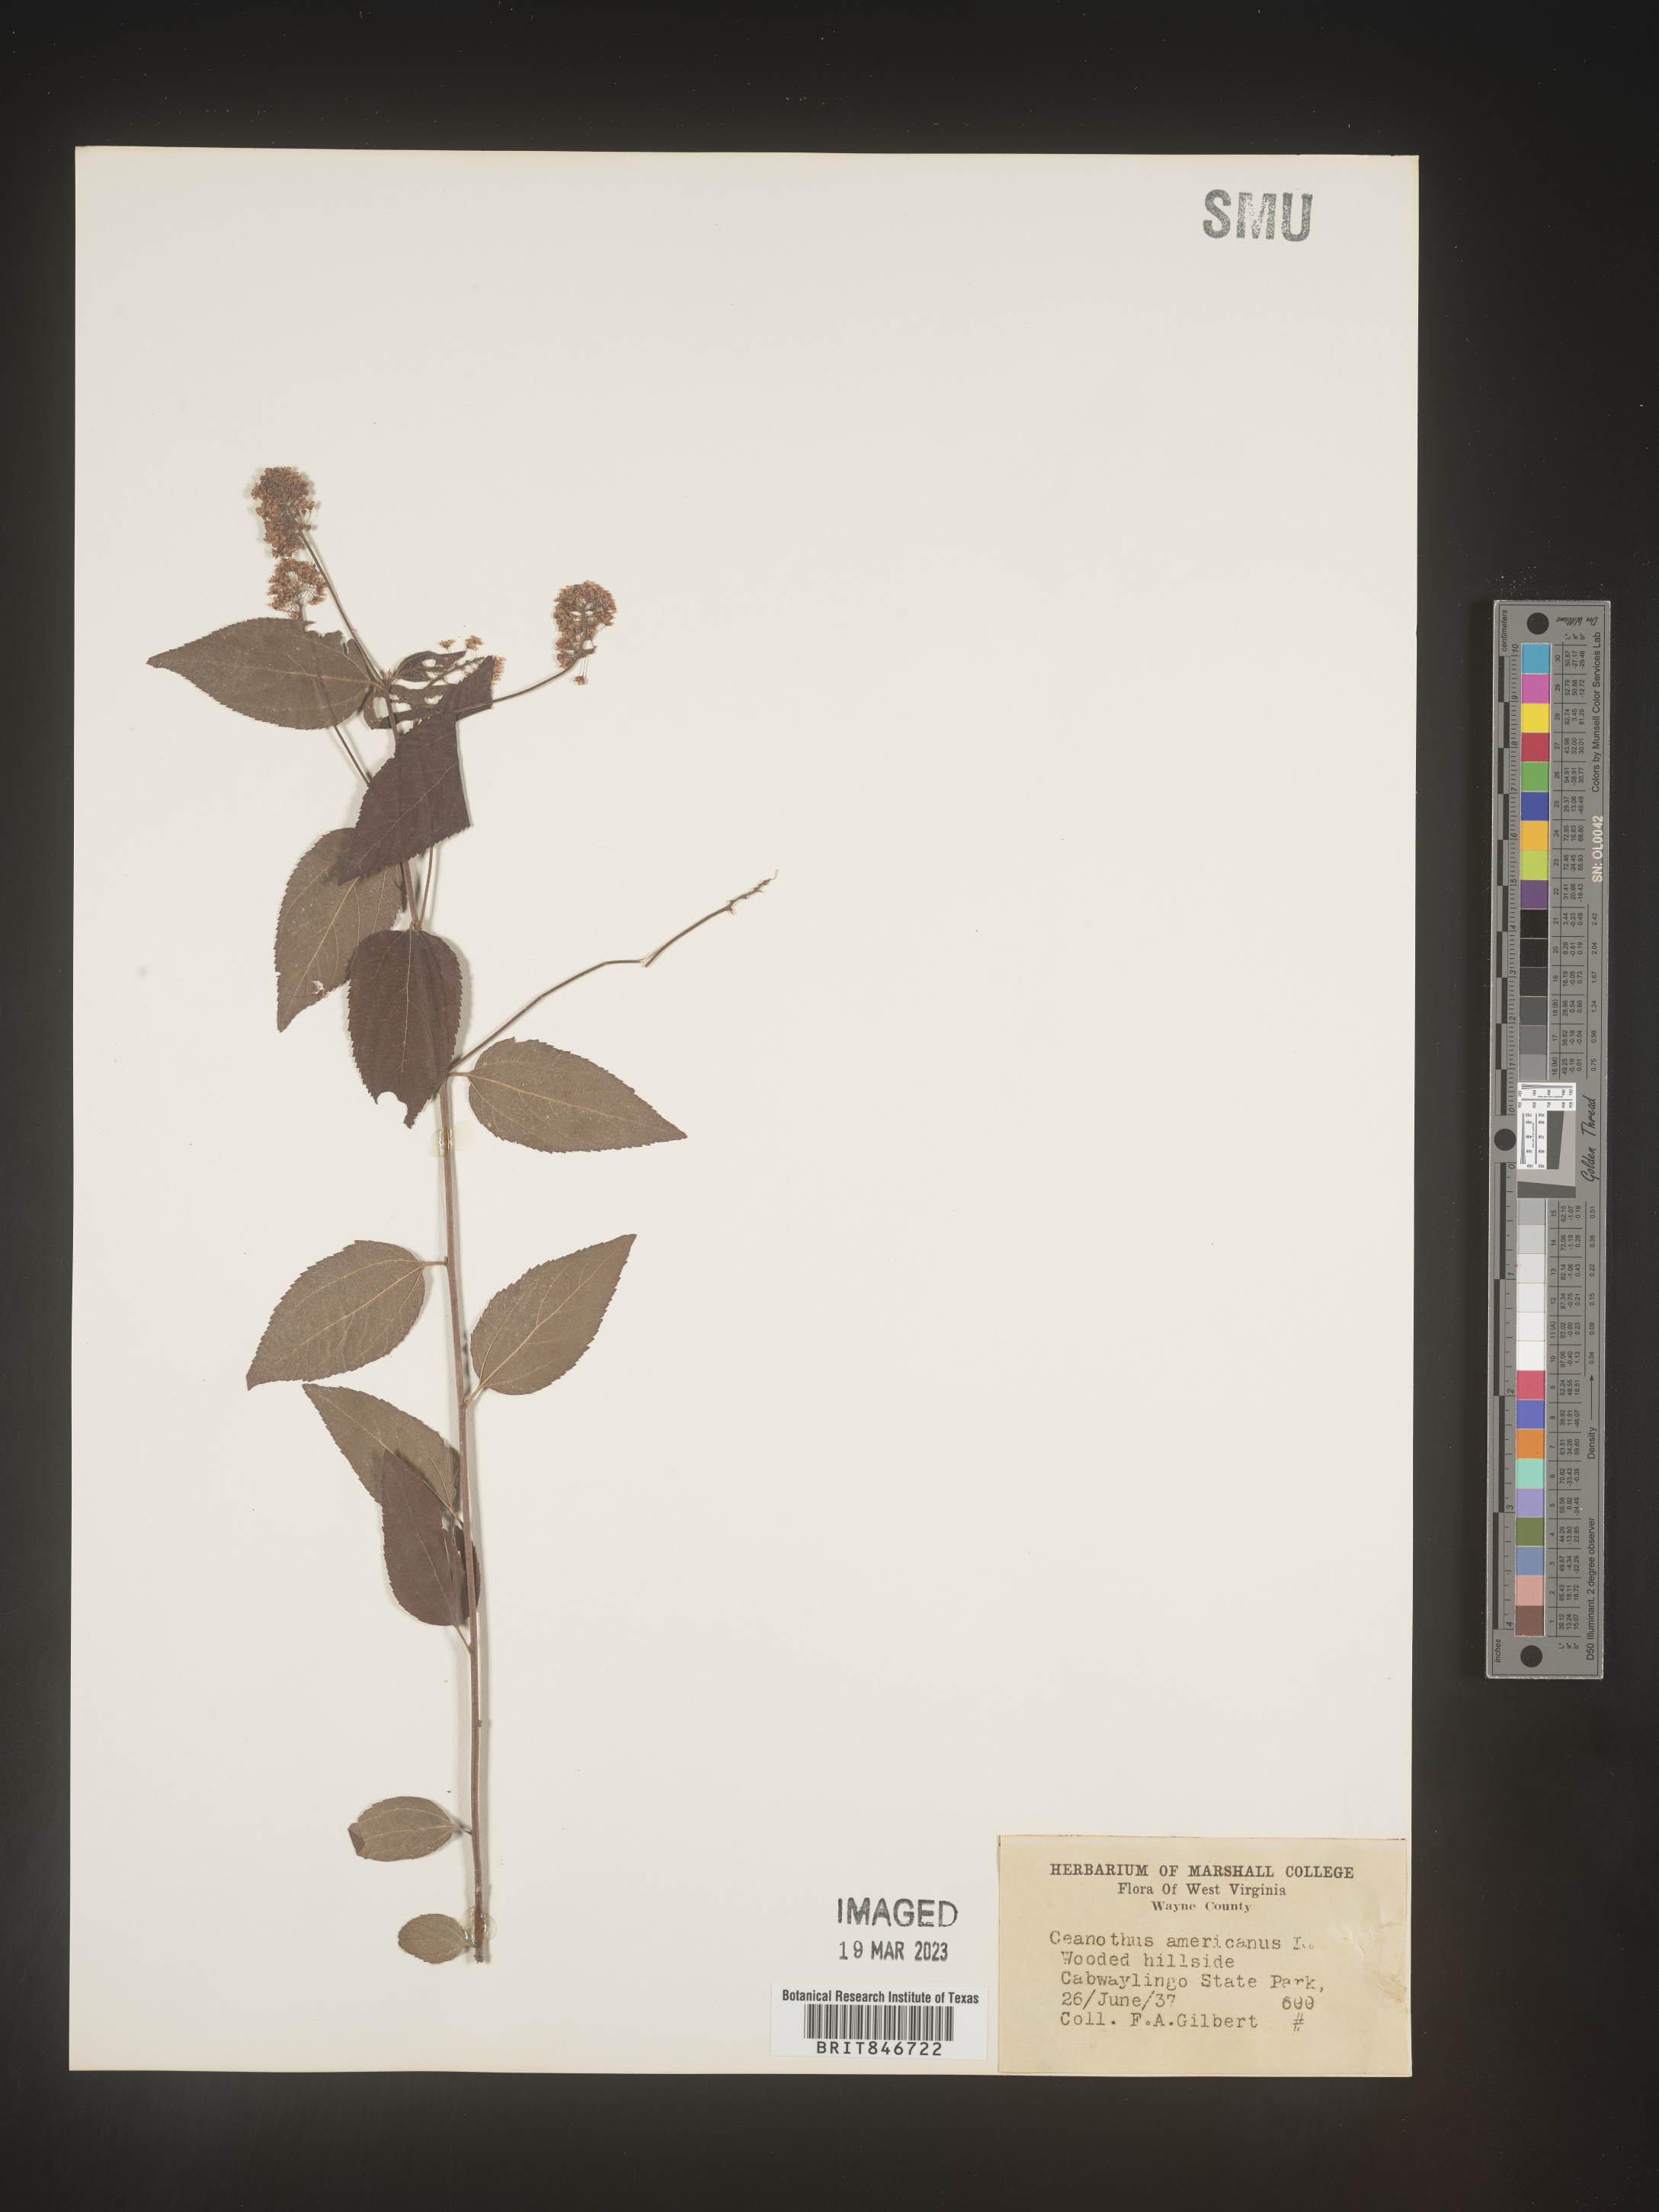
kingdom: Plantae
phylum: Tracheophyta
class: Magnoliopsida
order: Rosales
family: Rhamnaceae
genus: Ceanothus
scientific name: Ceanothus americanus
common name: Redroot
